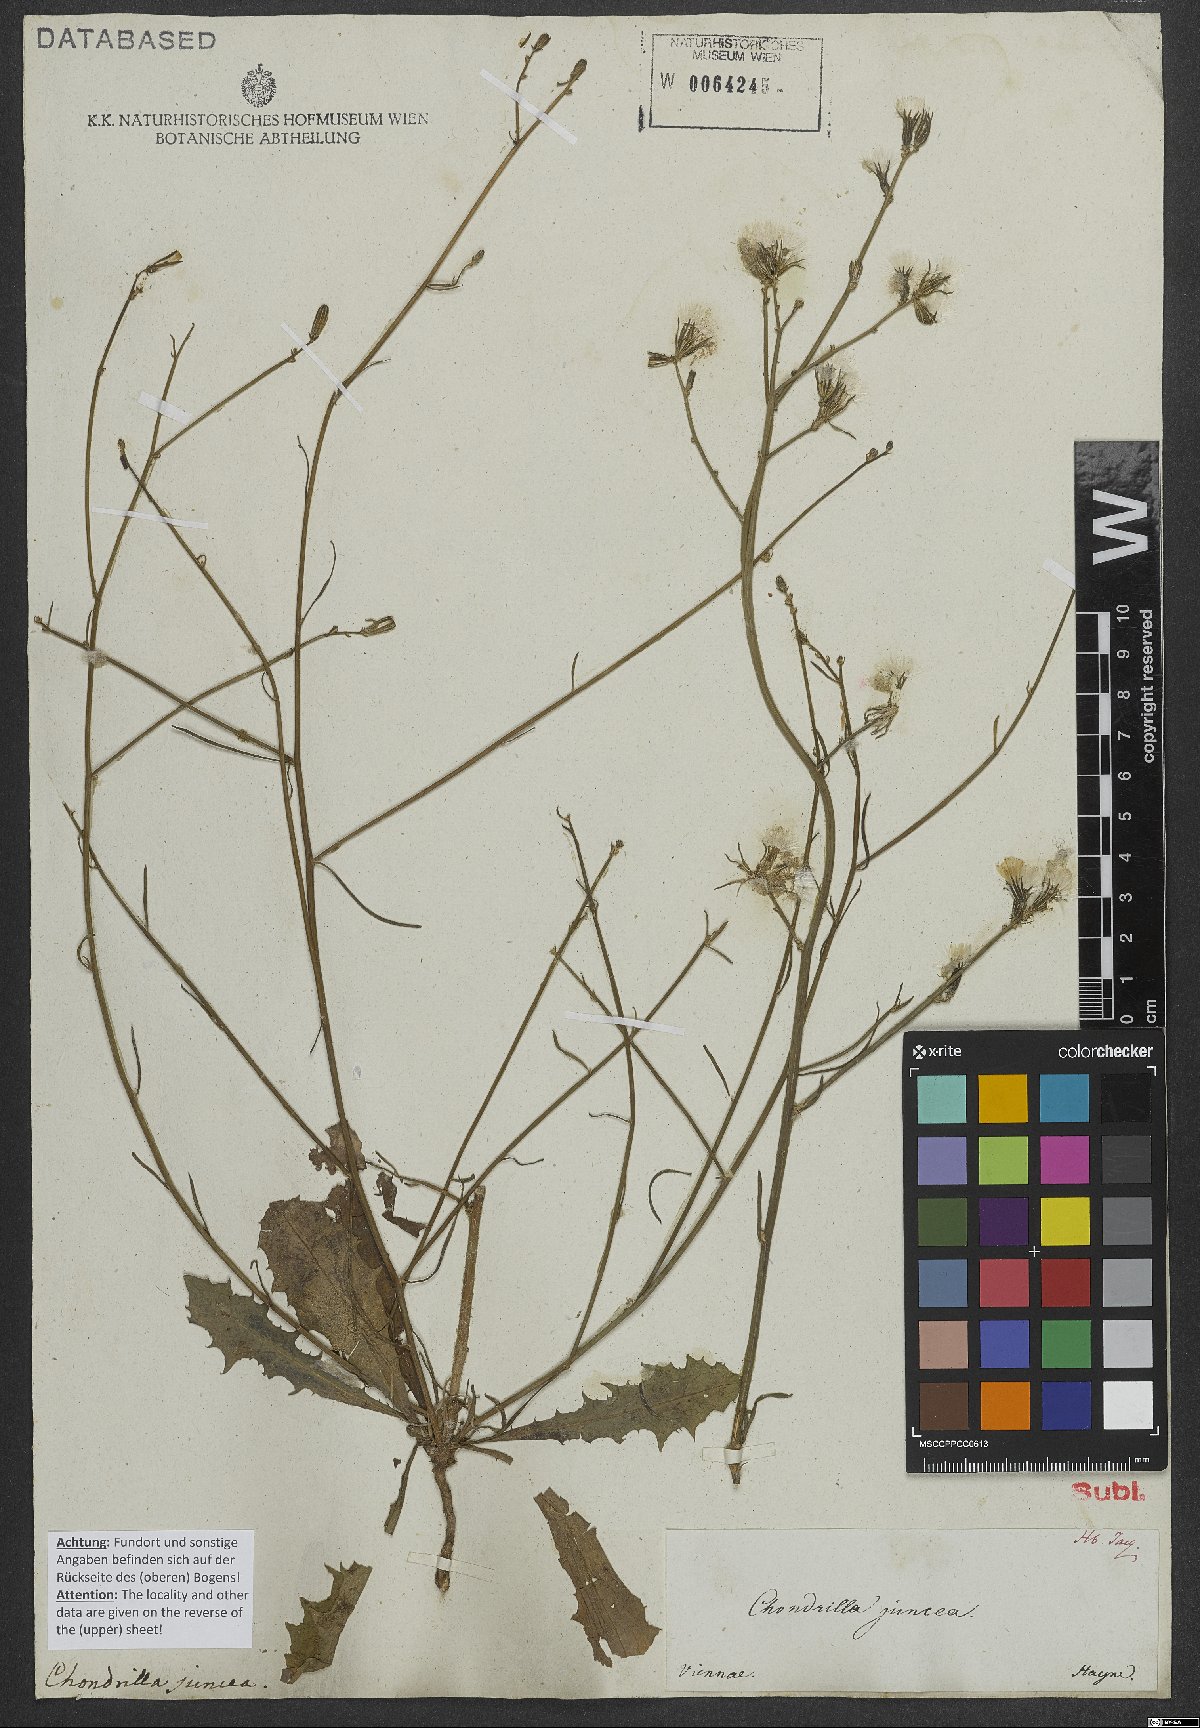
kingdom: Plantae
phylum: Tracheophyta
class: Magnoliopsida
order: Asterales
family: Asteraceae
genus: Chondrilla
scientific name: Chondrilla juncea
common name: Skeleton weed
